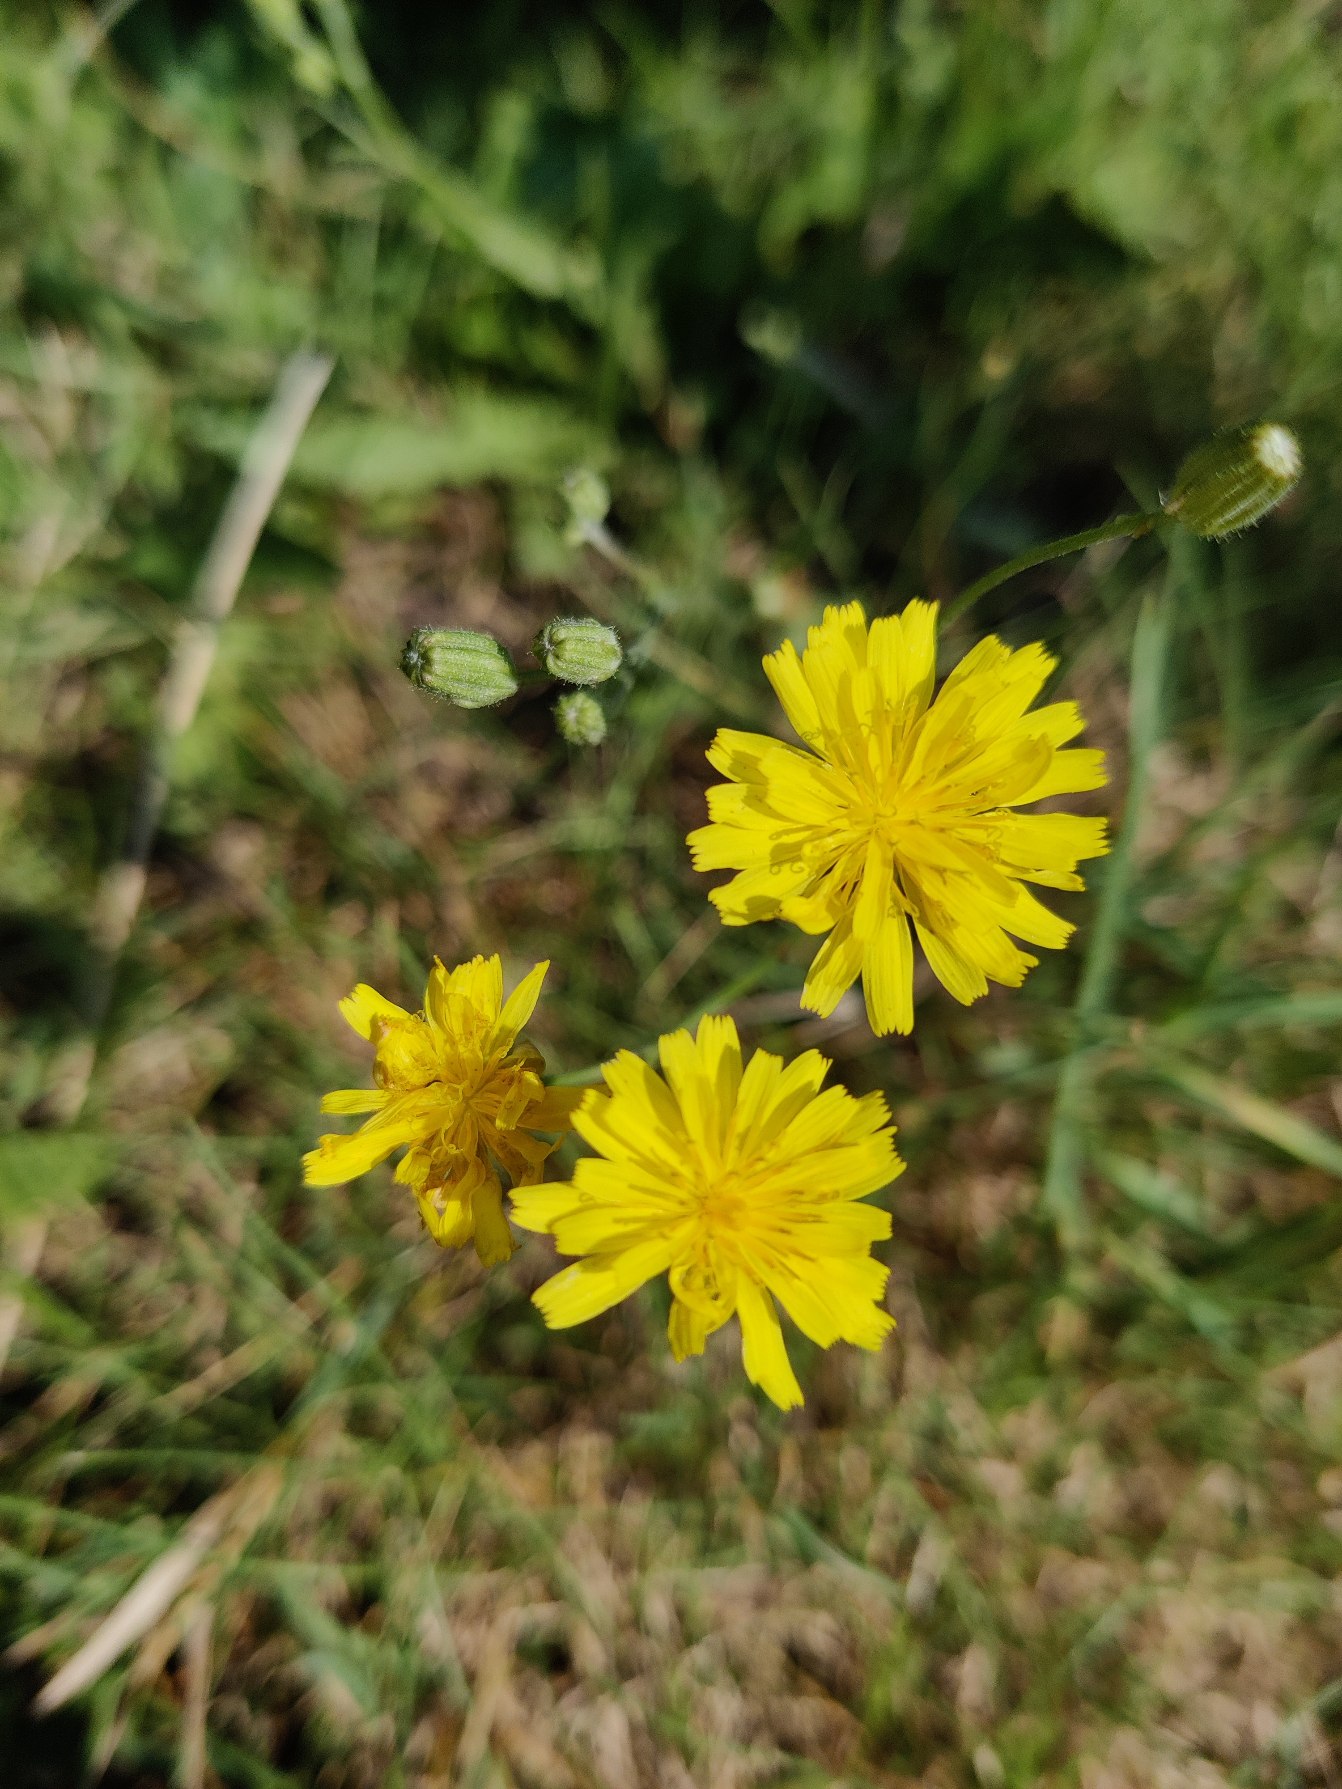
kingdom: Plantae
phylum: Tracheophyta
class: Magnoliopsida
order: Asterales
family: Asteraceae
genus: Crepis
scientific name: Crepis
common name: Høgeskægslægten
